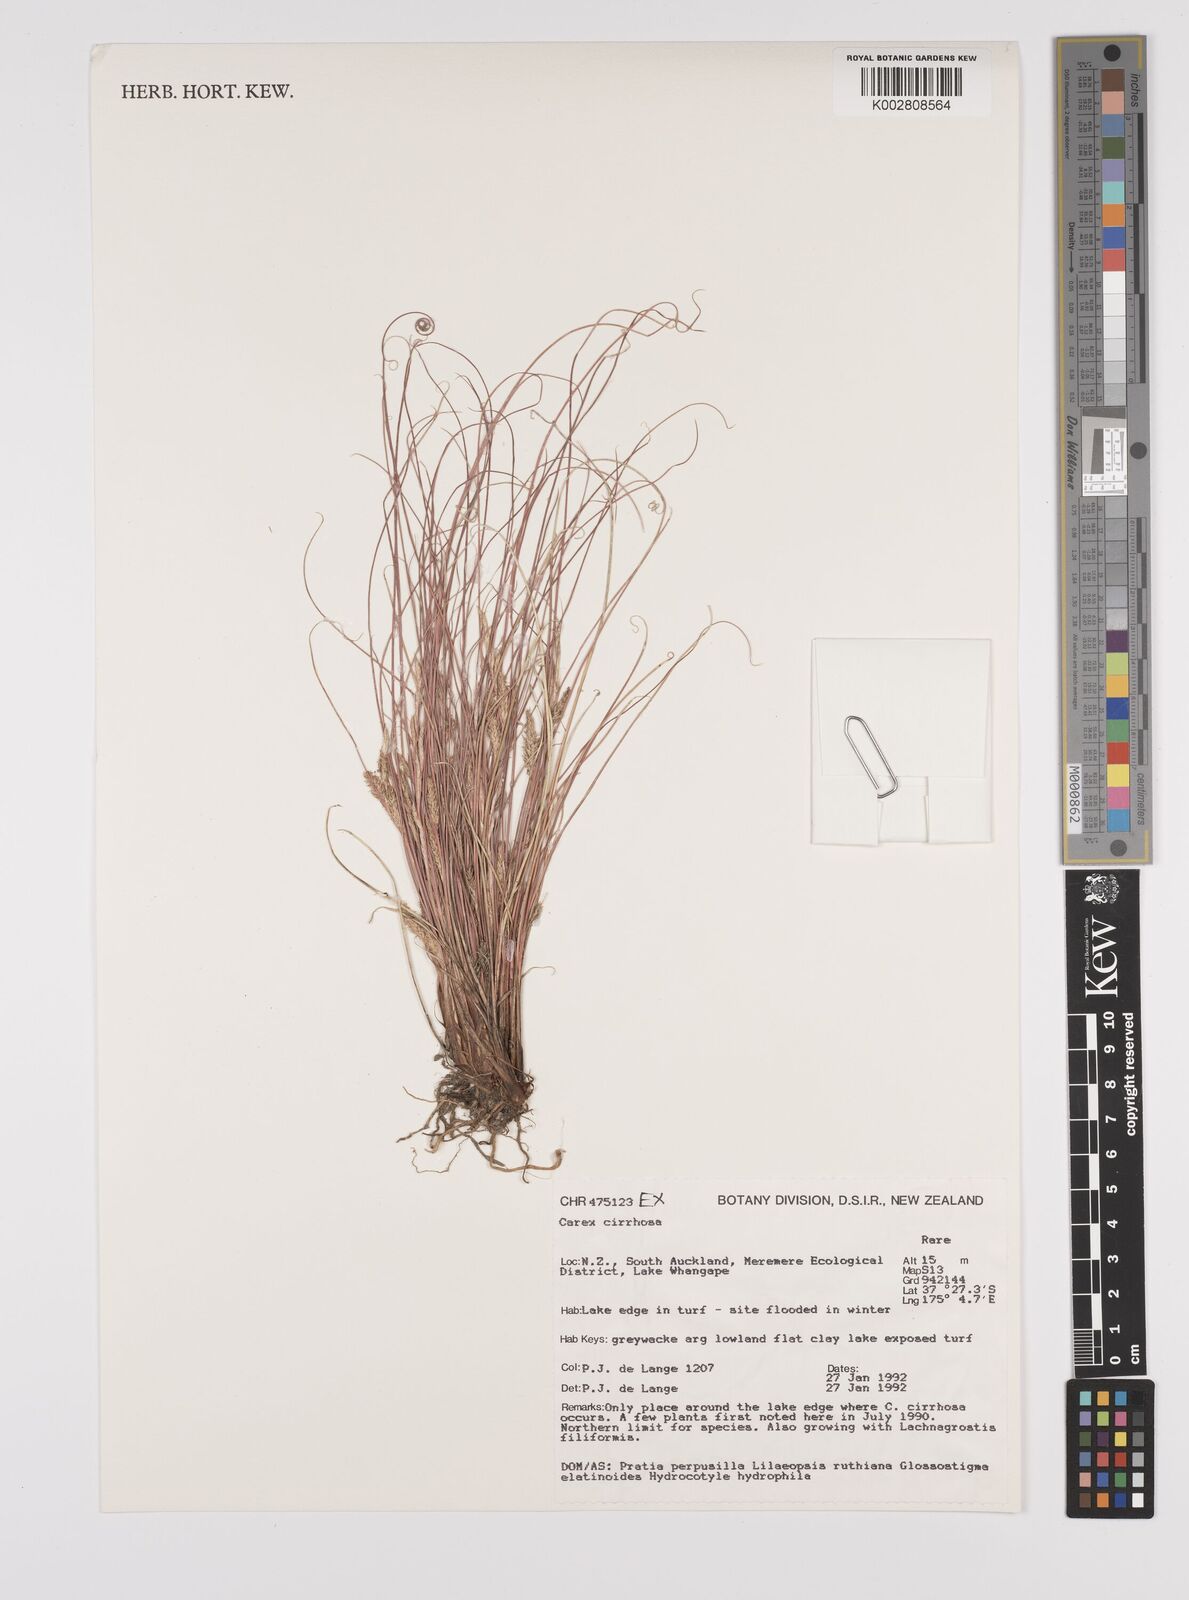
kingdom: Plantae
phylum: Tracheophyta
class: Liliopsida
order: Poales
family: Cyperaceae
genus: Carex
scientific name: Carex cirrhosa
